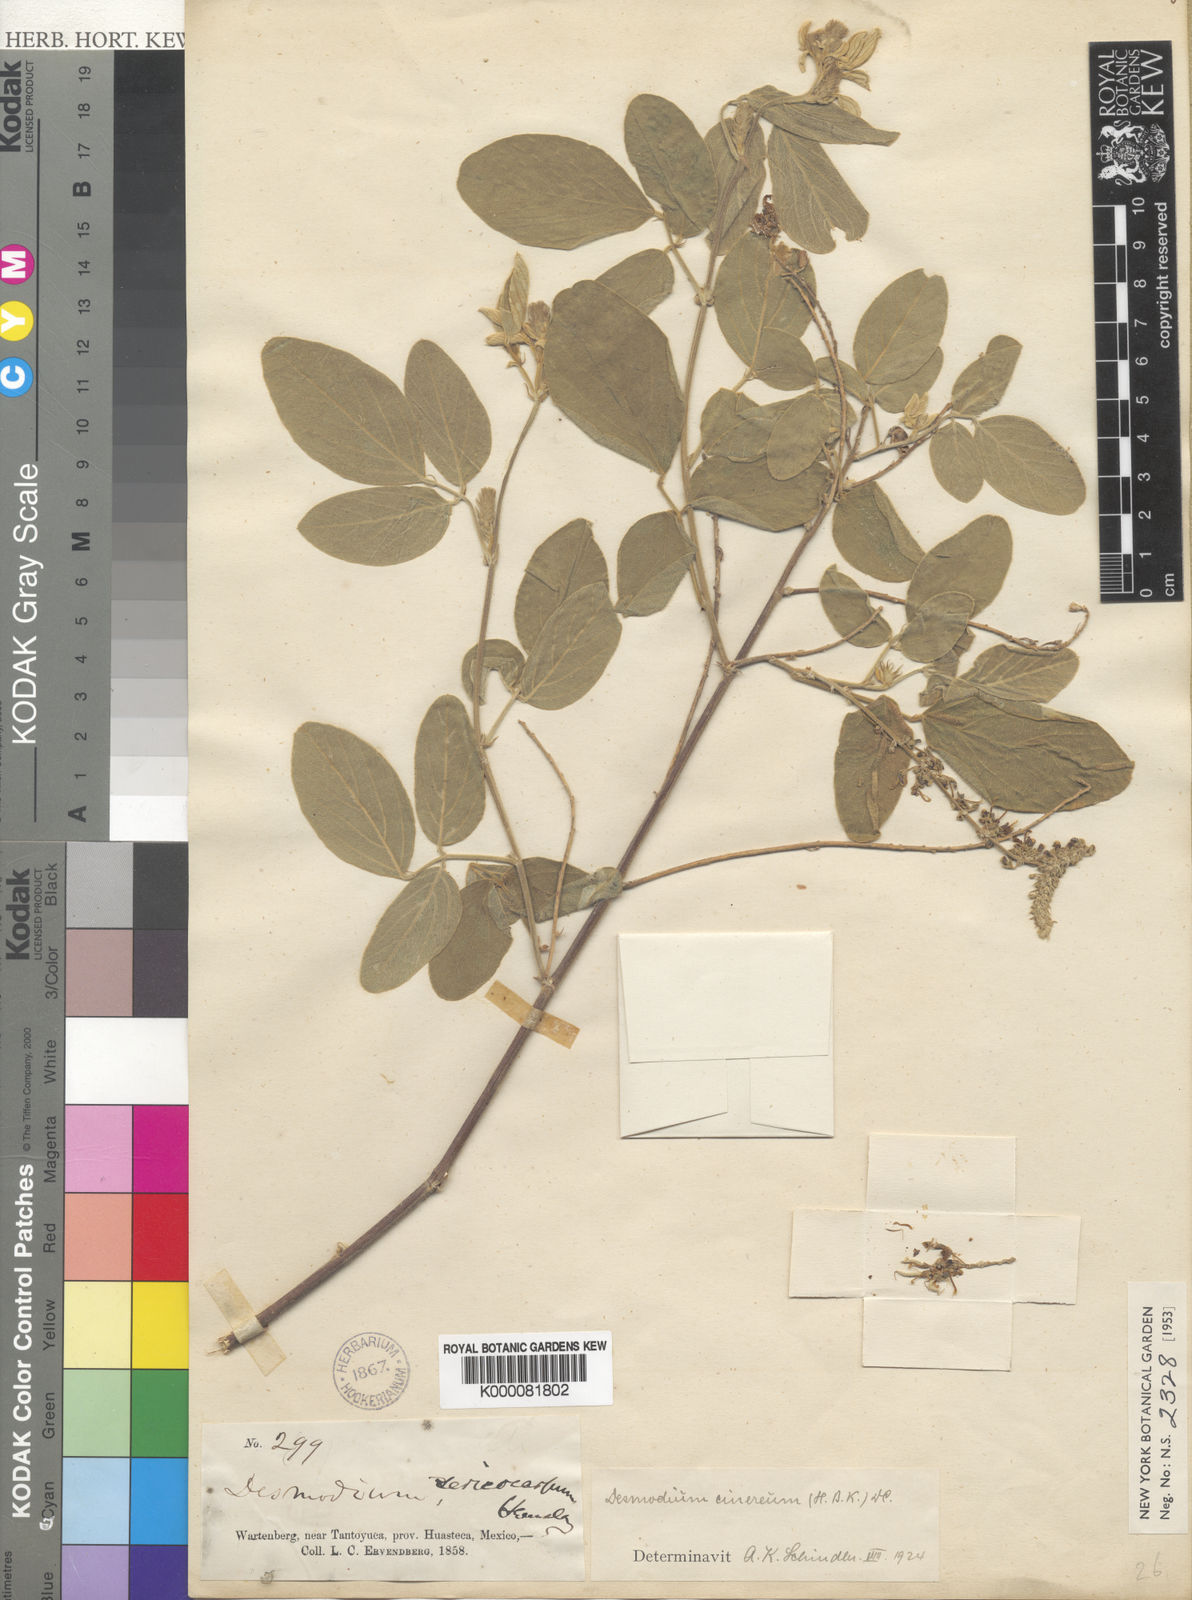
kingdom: Plantae
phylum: Tracheophyta
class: Magnoliopsida
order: Fabales
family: Fabaceae
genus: Desmodium
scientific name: Desmodium cinereum
